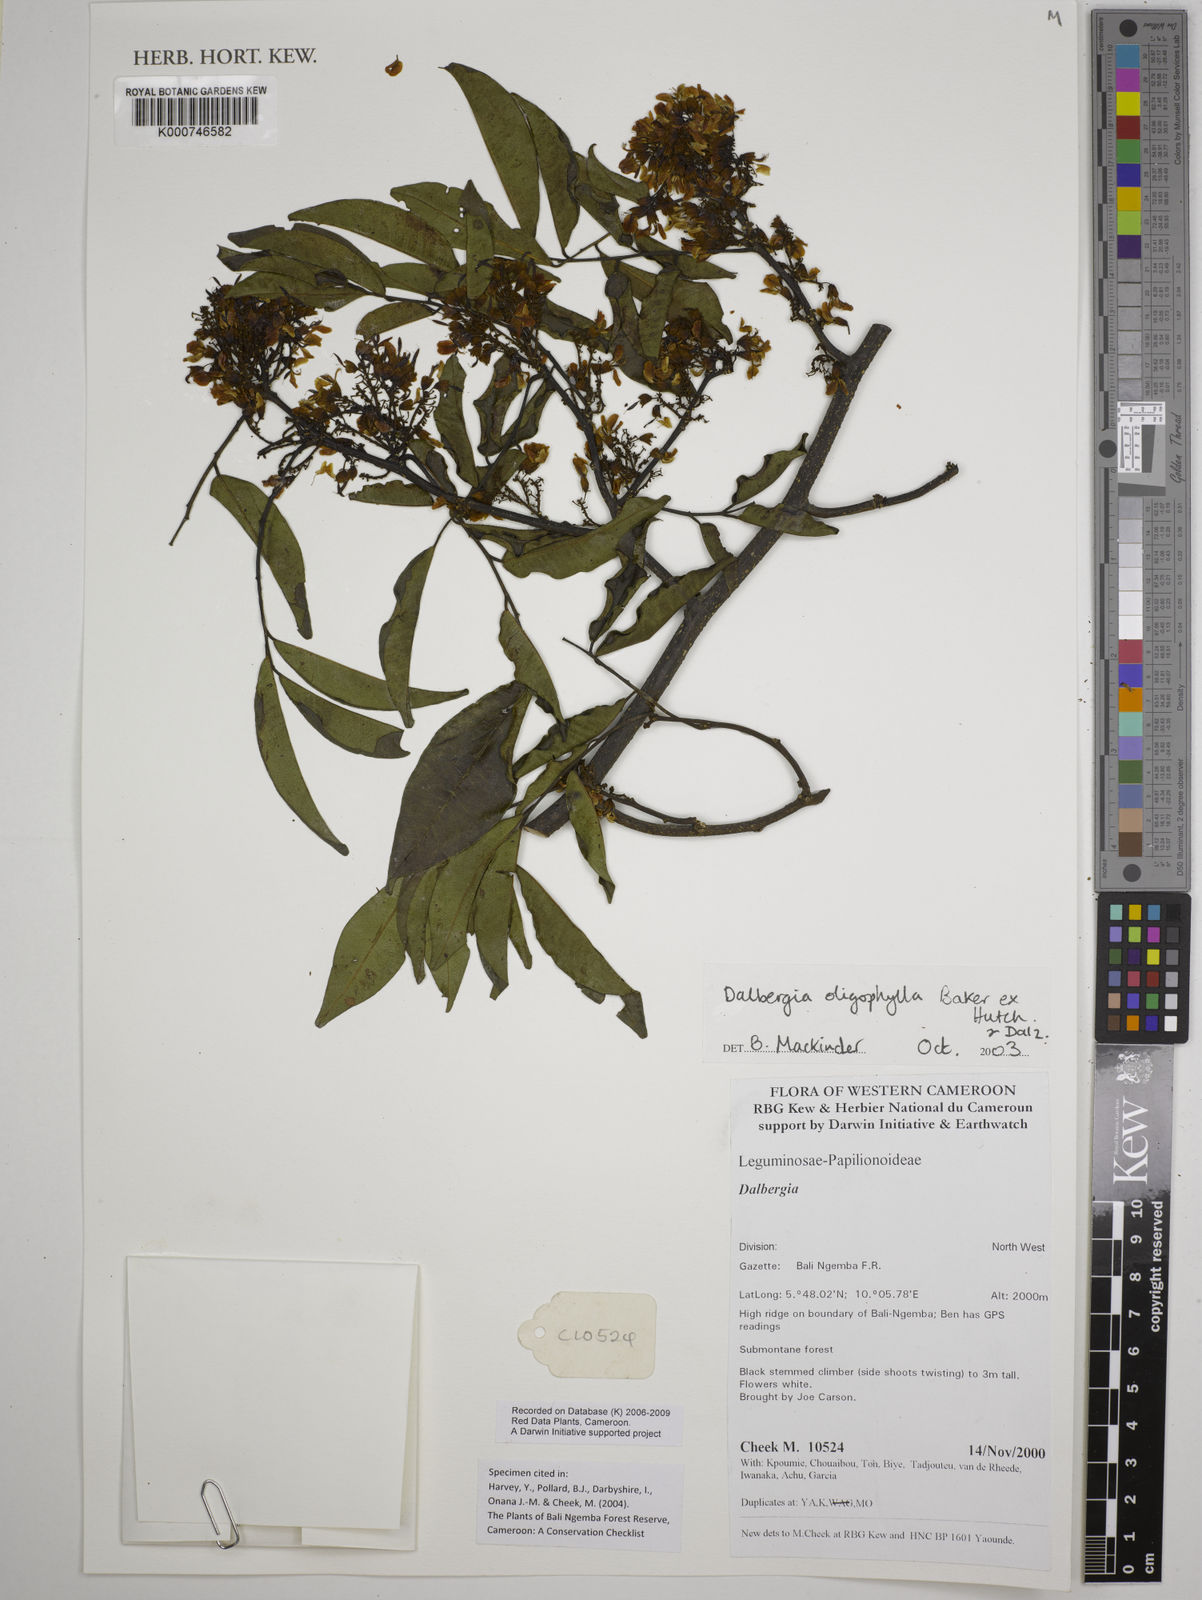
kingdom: Plantae
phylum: Tracheophyta
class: Magnoliopsida
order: Fabales
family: Fabaceae
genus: Dalbergia
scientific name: Dalbergia oligophylla
